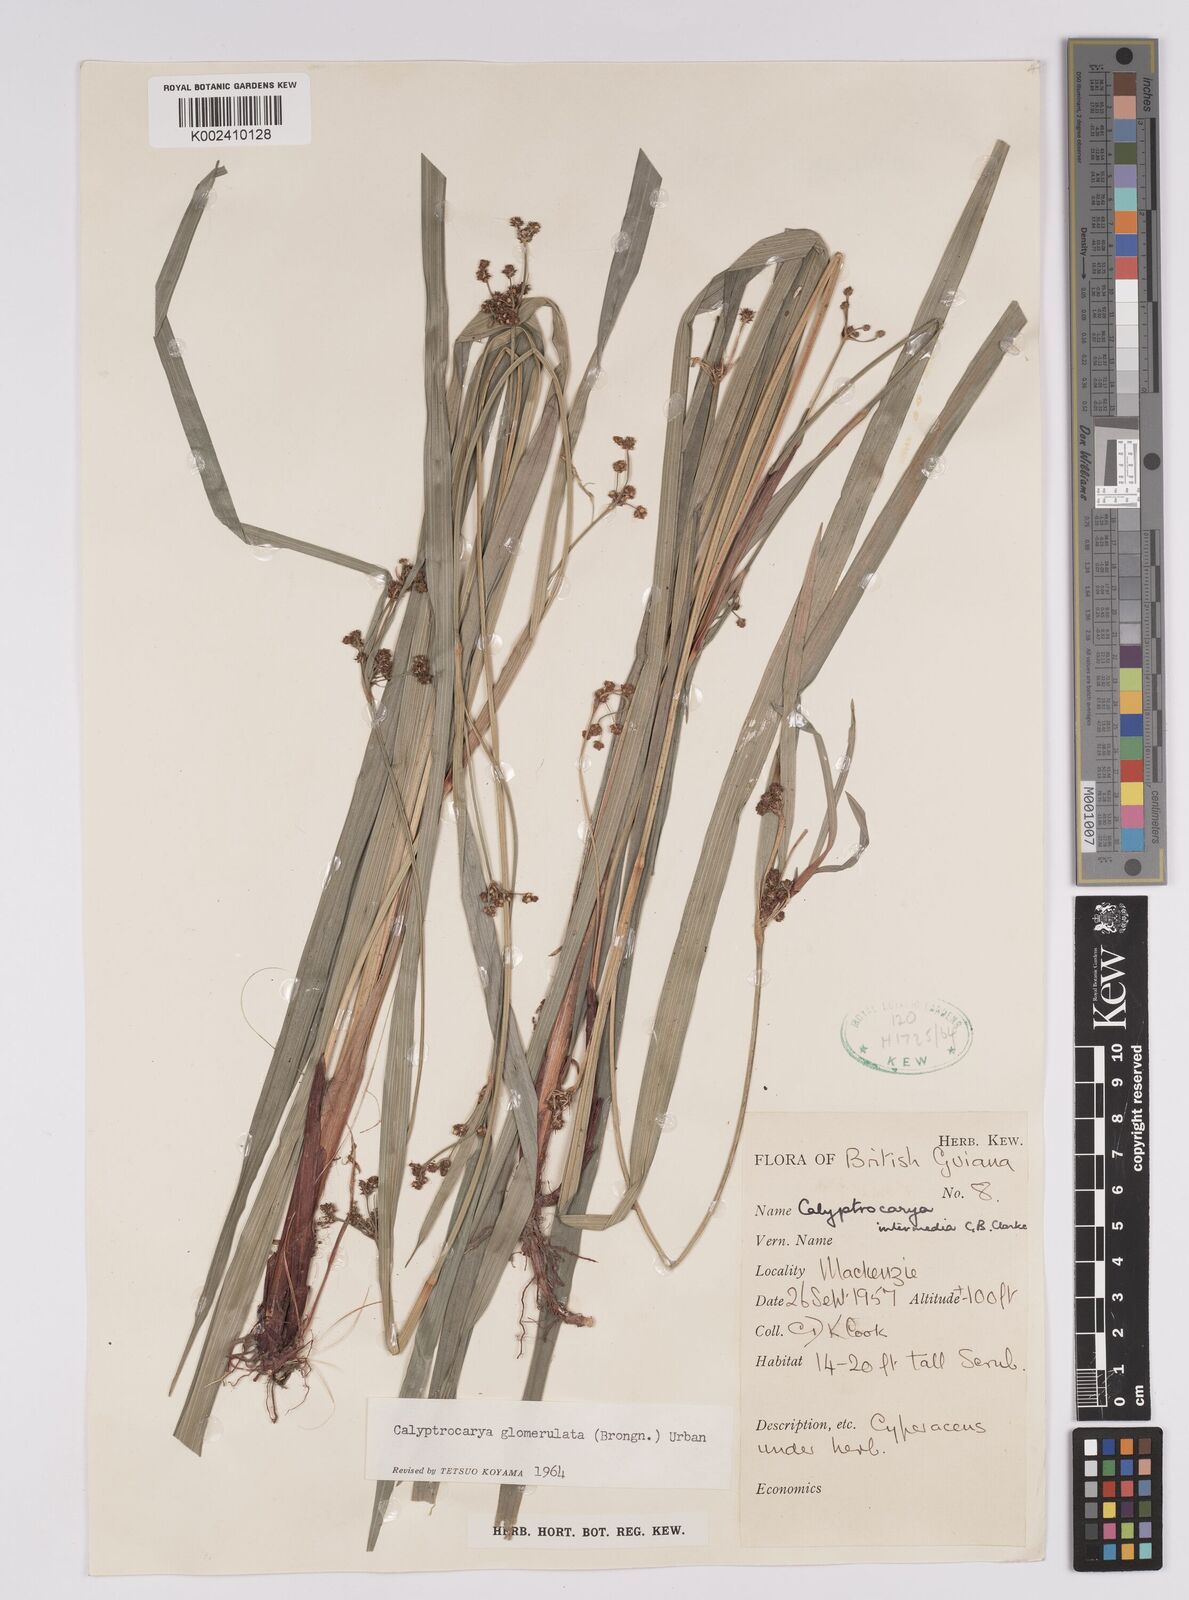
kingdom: Plantae
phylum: Tracheophyta
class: Liliopsida
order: Poales
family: Cyperaceae
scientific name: Cyperaceae
